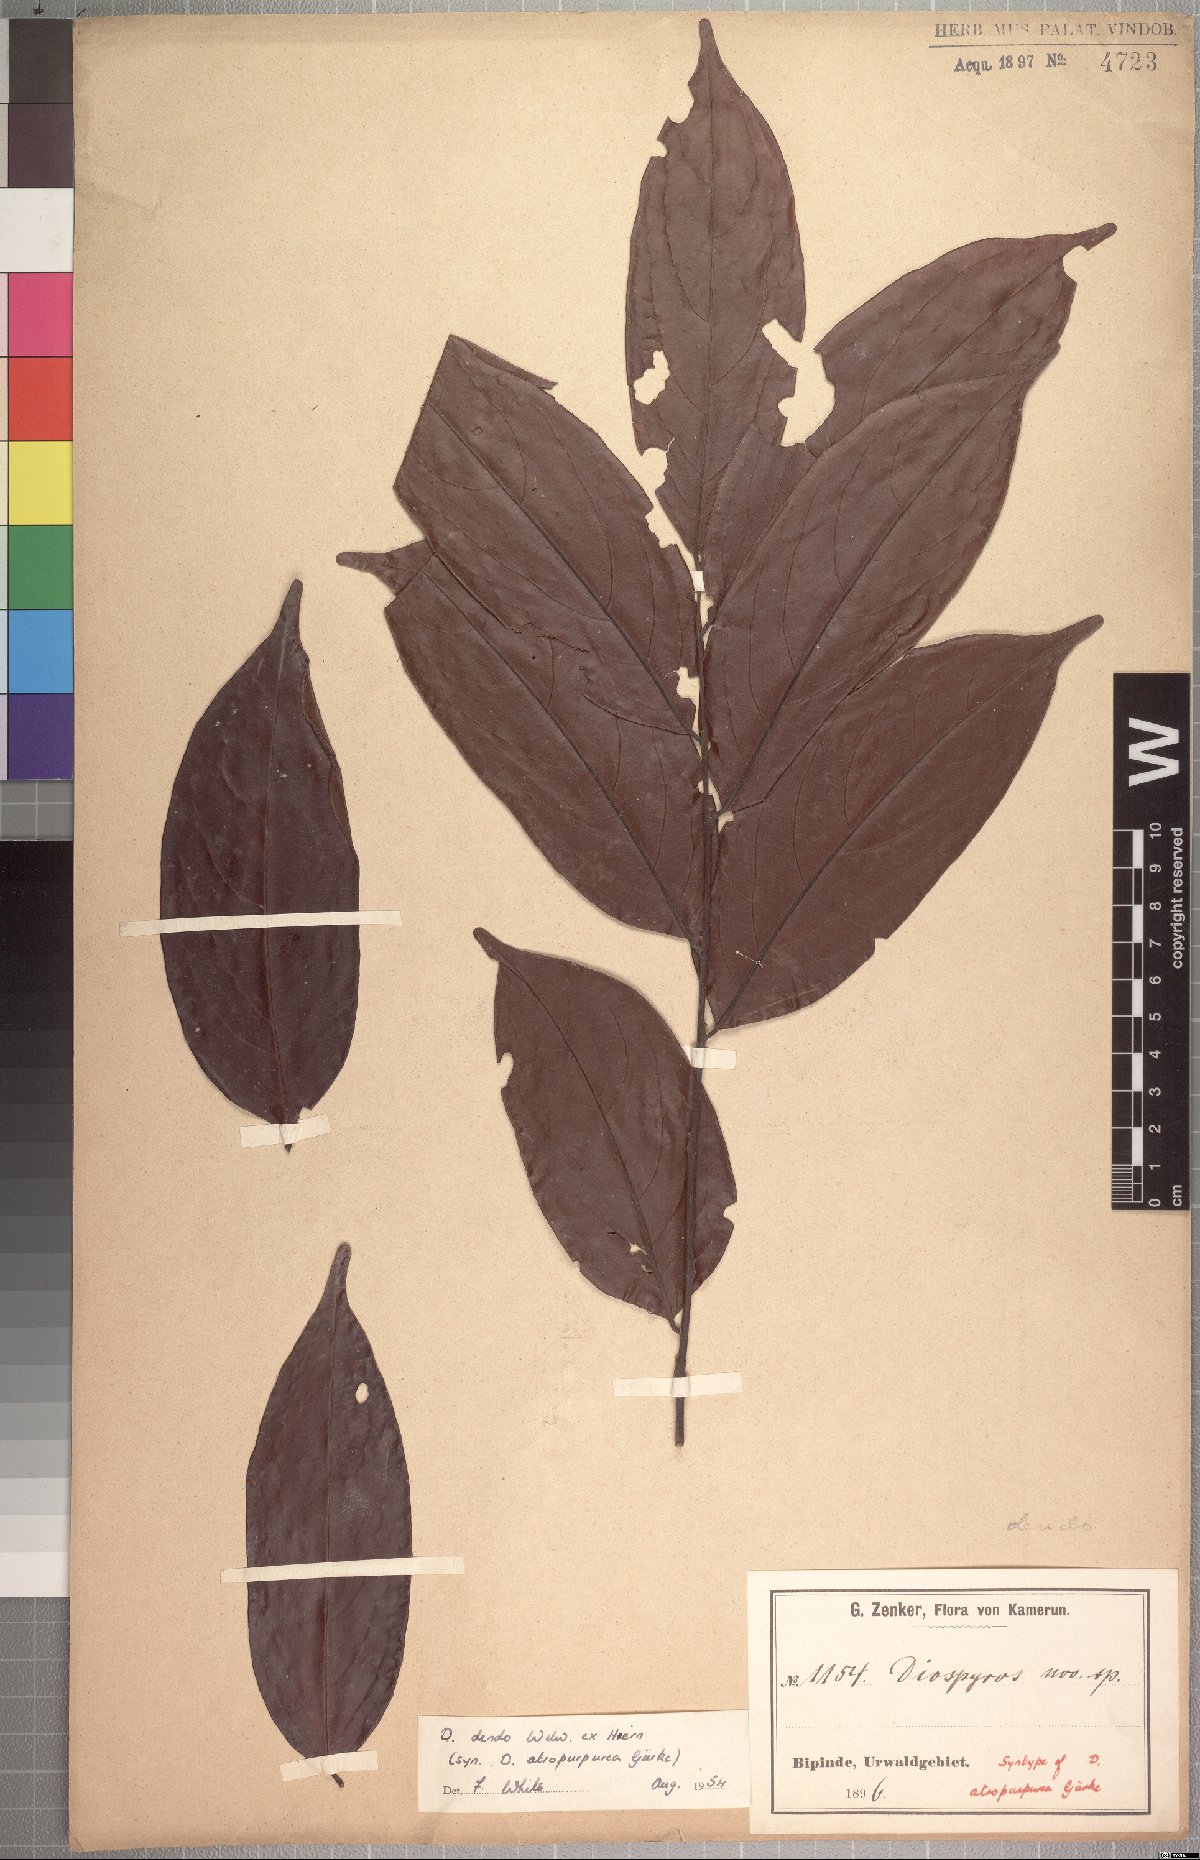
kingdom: Plantae
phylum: Tracheophyta
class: Magnoliopsida
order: Ericales
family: Ebenaceae
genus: Diospyros
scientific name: Diospyros dendo
